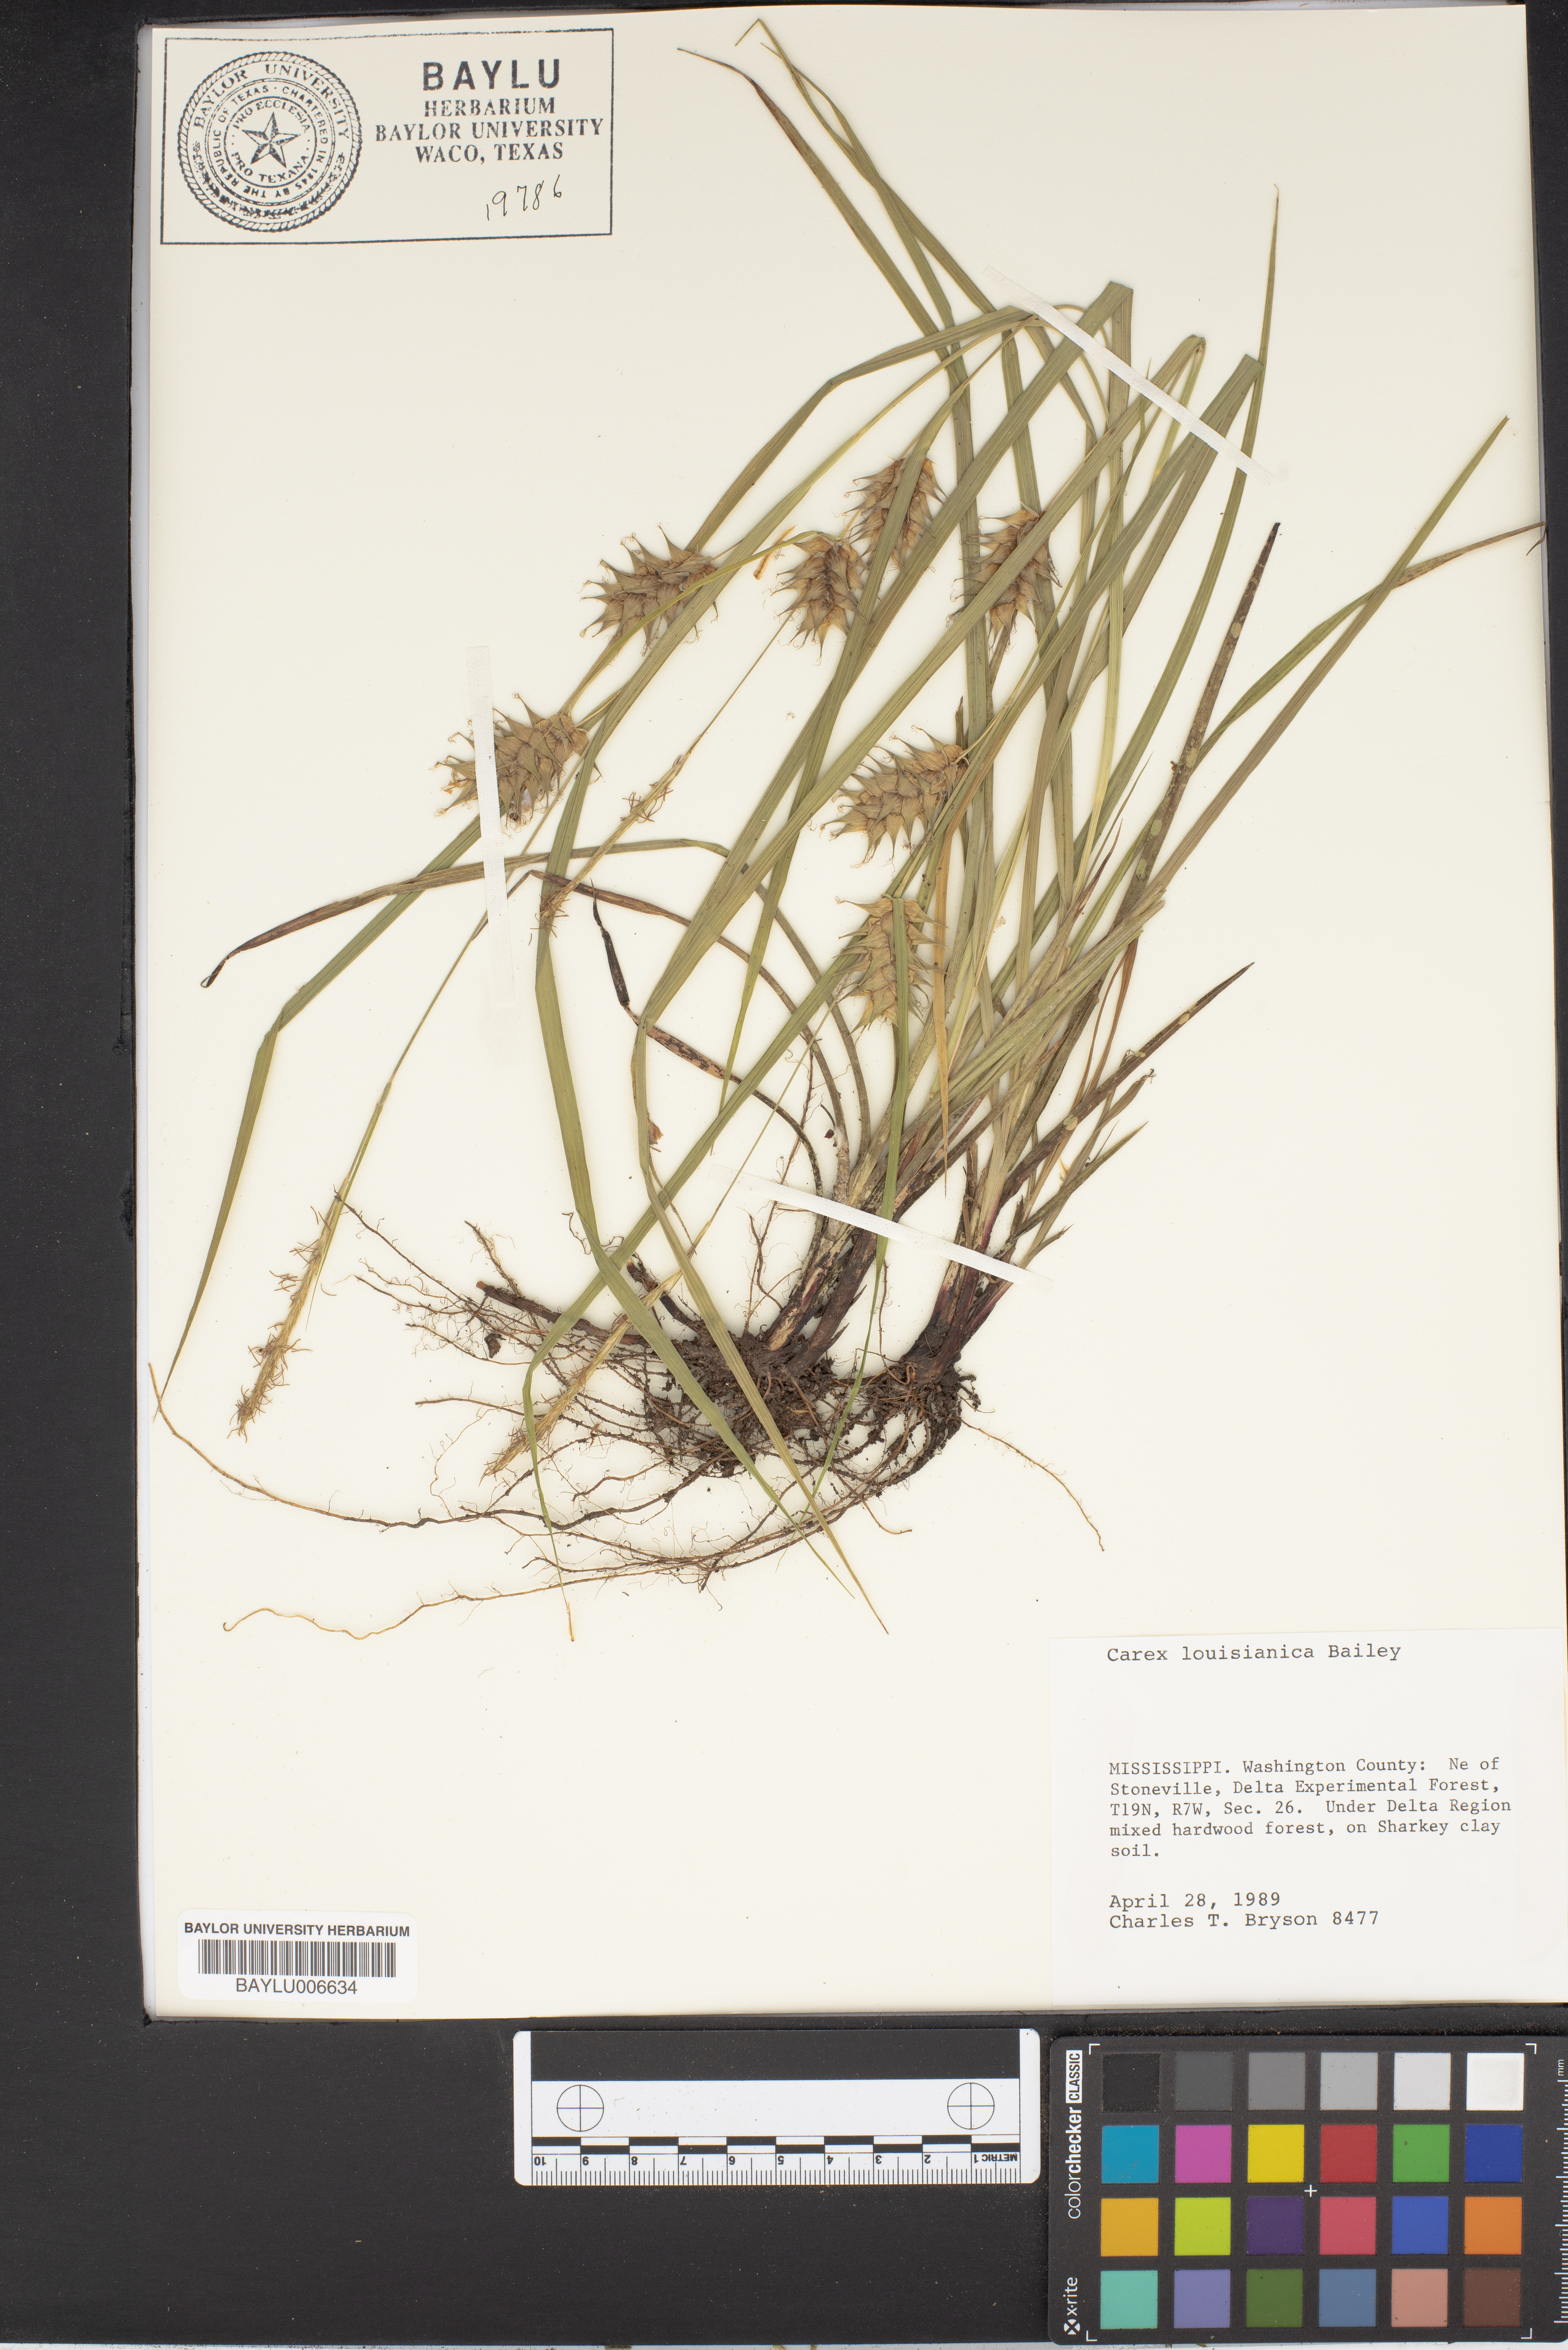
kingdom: Plantae
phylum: Tracheophyta
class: Liliopsida
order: Poales
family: Cyperaceae
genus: Carex
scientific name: Carex louisianica
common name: Louisiana sedge
